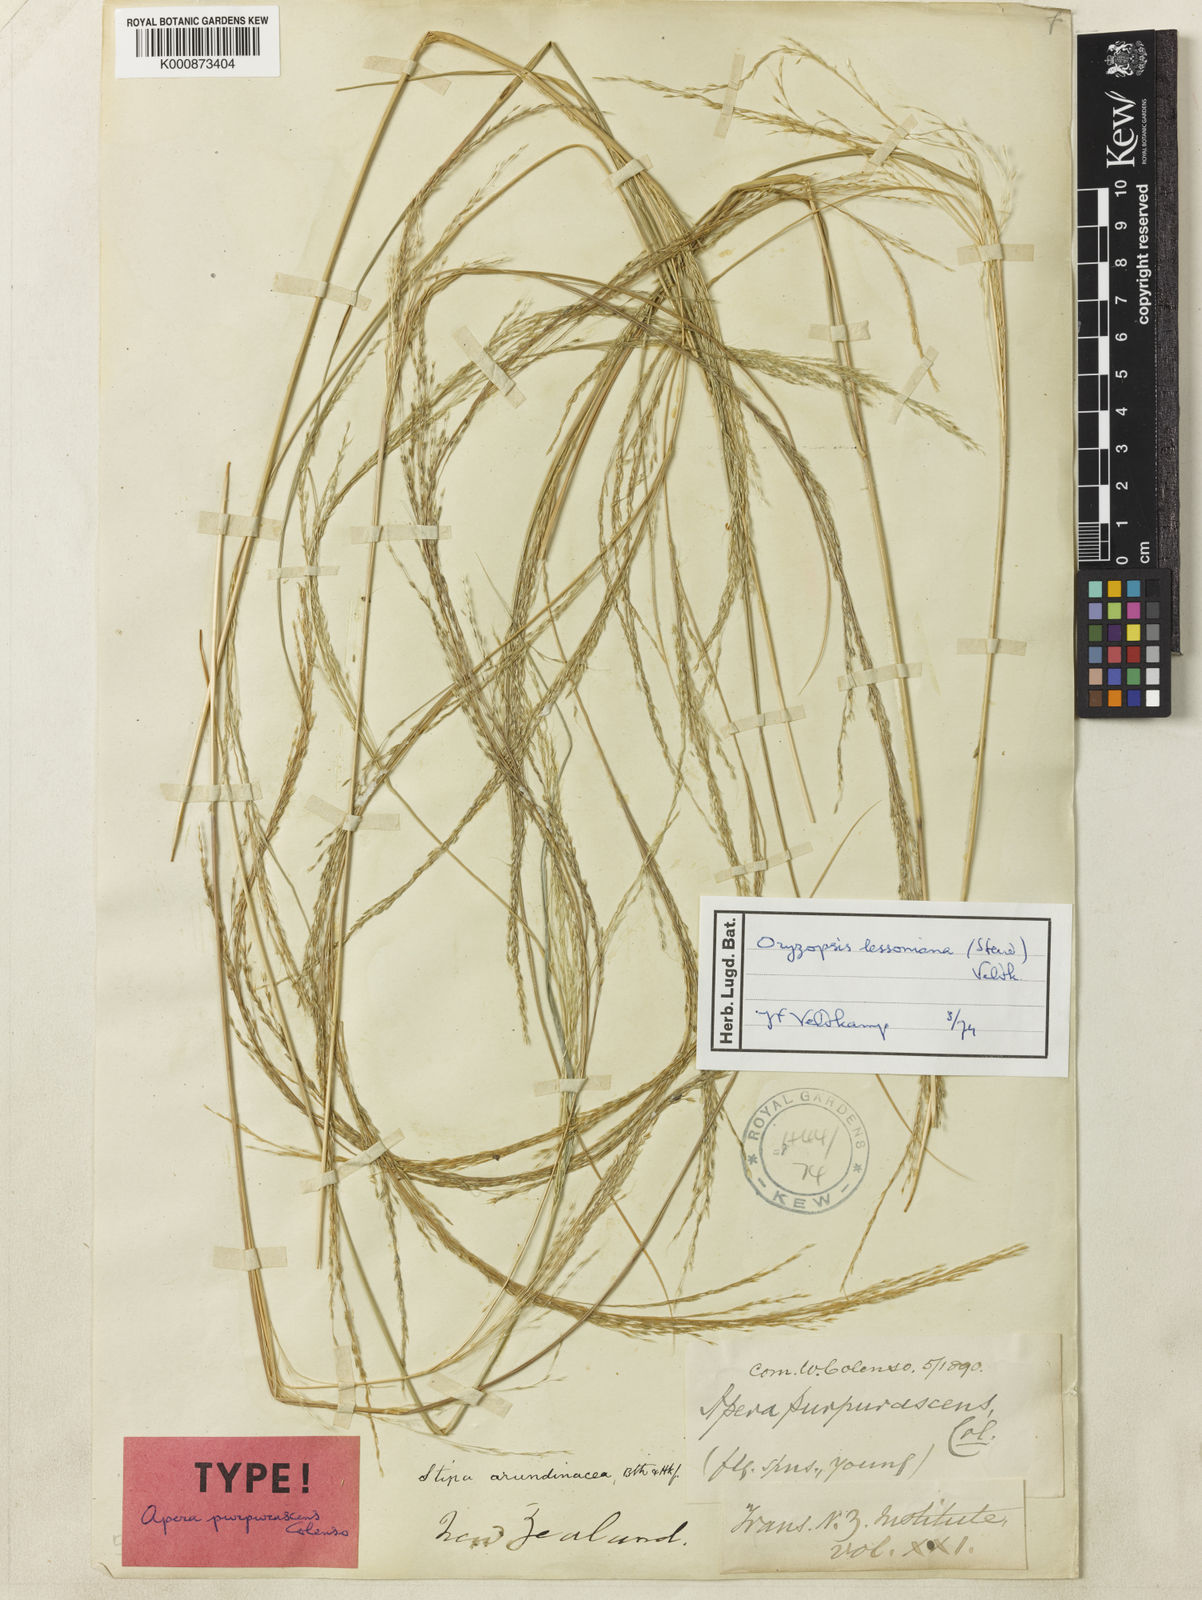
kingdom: Plantae
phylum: Tracheophyta
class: Liliopsida
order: Poales
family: Poaceae
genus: Stipa
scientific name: Stipa
